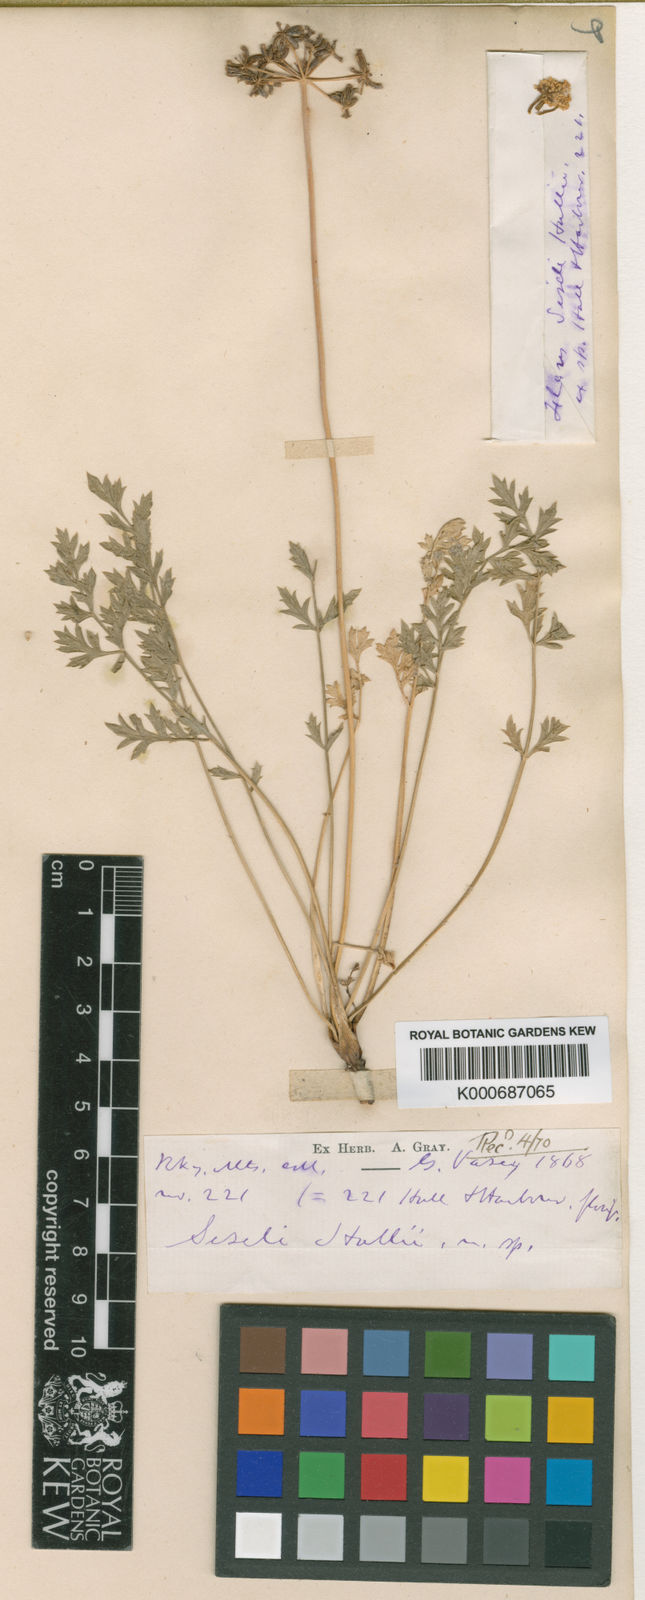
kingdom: Plantae
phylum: Tracheophyta
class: Magnoliopsida
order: Apiales
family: Apiaceae
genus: Cymopterus
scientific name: Cymopterus hallii
